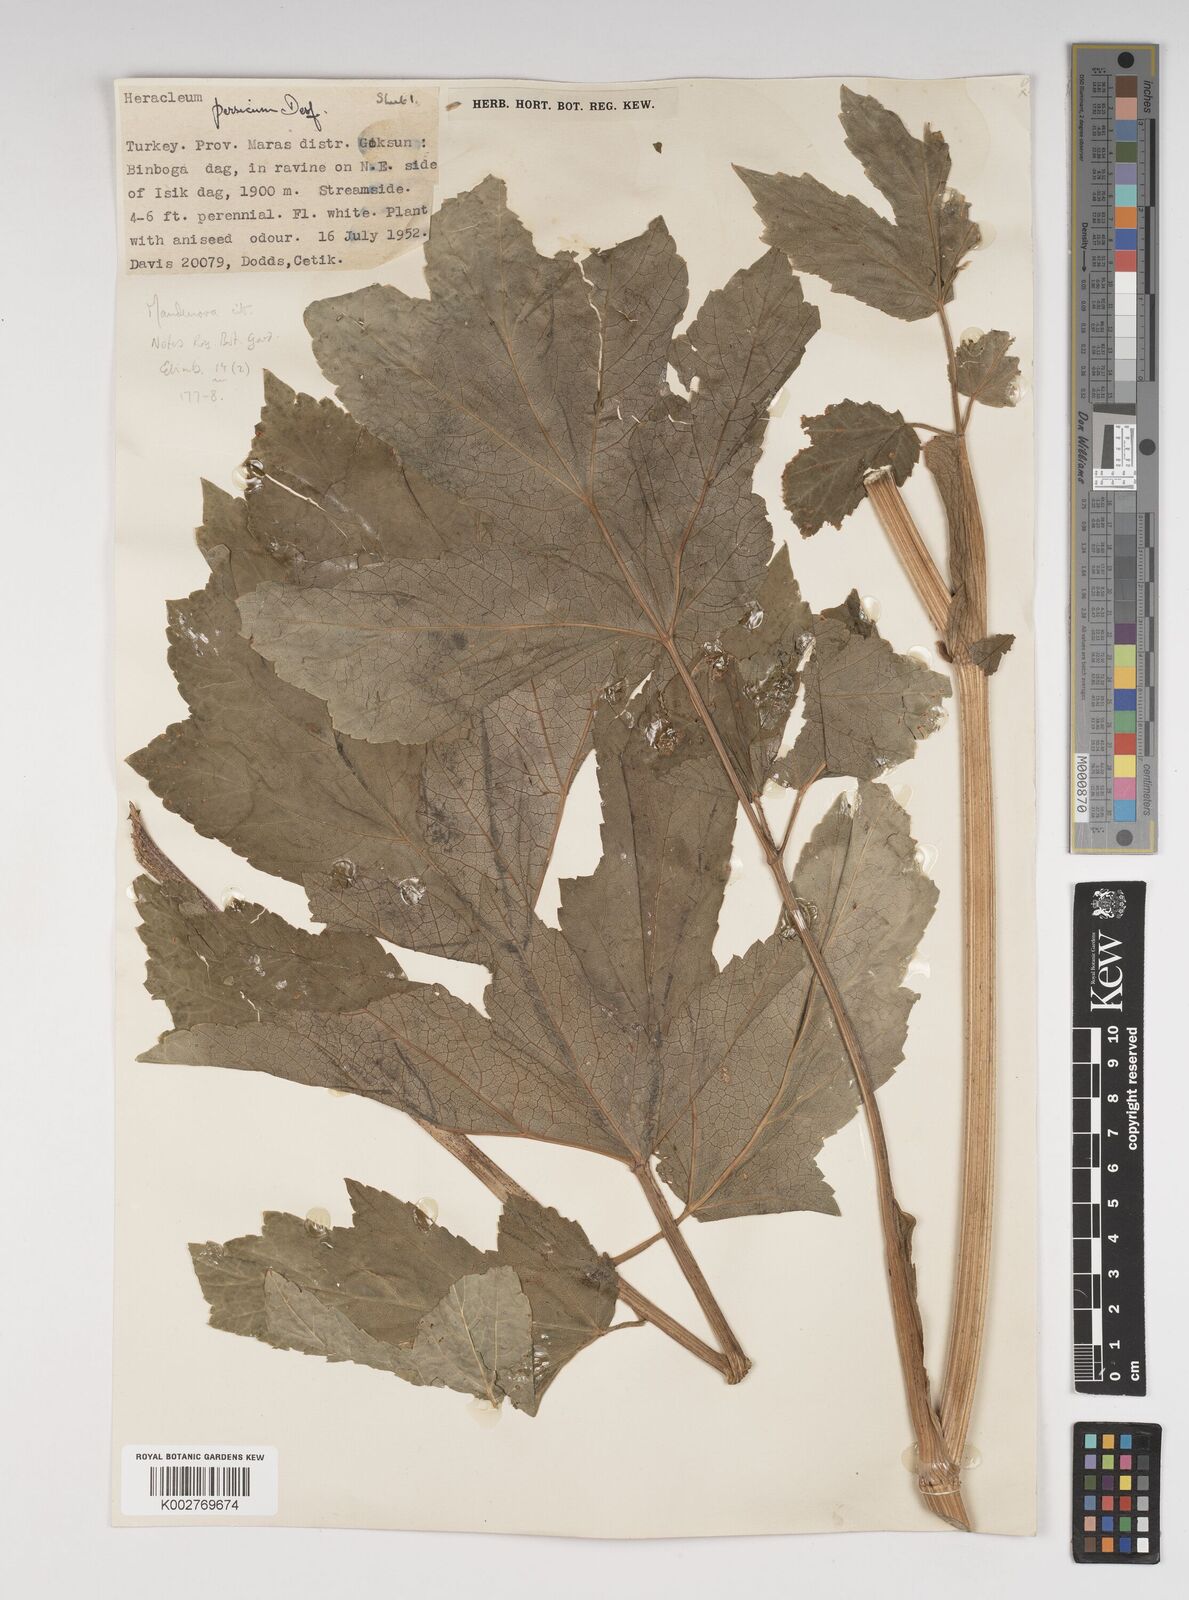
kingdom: Plantae
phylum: Tracheophyta
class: Magnoliopsida
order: Apiales
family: Apiaceae
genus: Heracleum
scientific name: Heracleum persicum
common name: Persian hogweed
